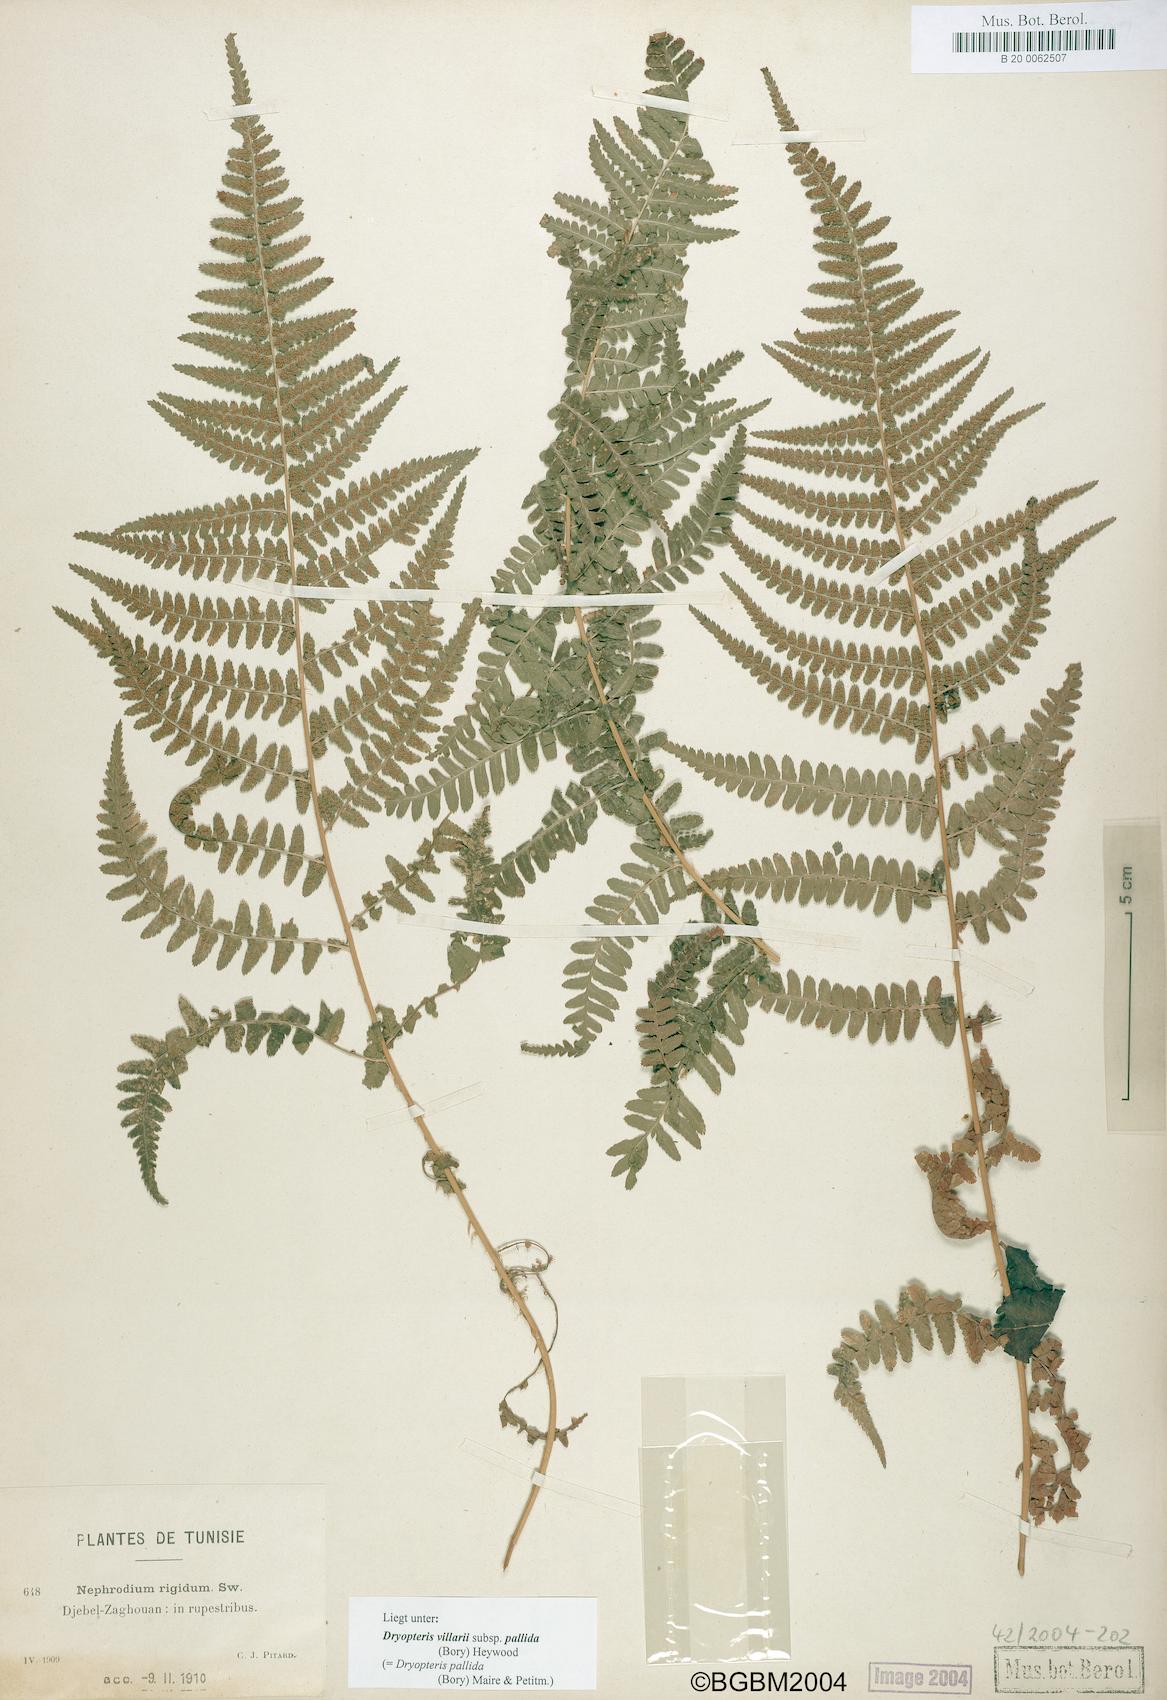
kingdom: Plantae
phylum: Tracheophyta
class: Polypodiopsida
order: Polypodiales
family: Dryopteridaceae
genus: Dryopteris
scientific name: Dryopteris pallida
